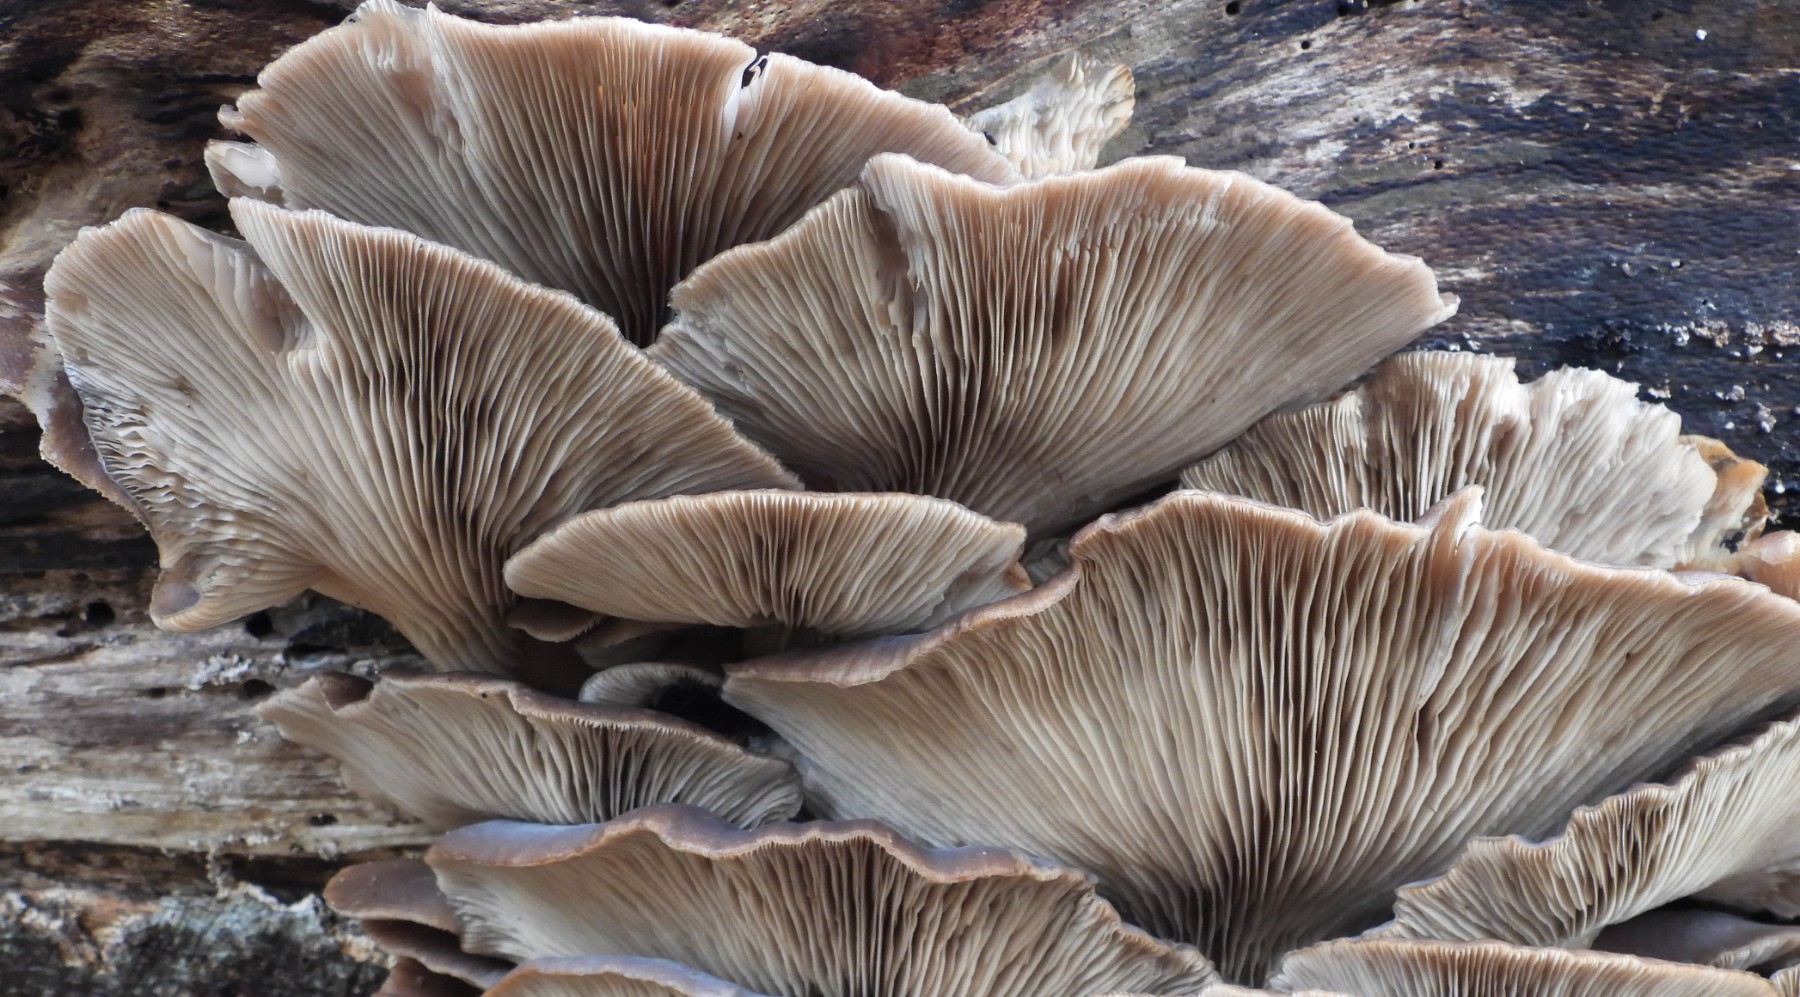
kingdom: Fungi
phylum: Basidiomycota
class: Agaricomycetes
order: Agaricales
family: Pleurotaceae
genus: Pleurotus
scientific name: Pleurotus ostreatus
